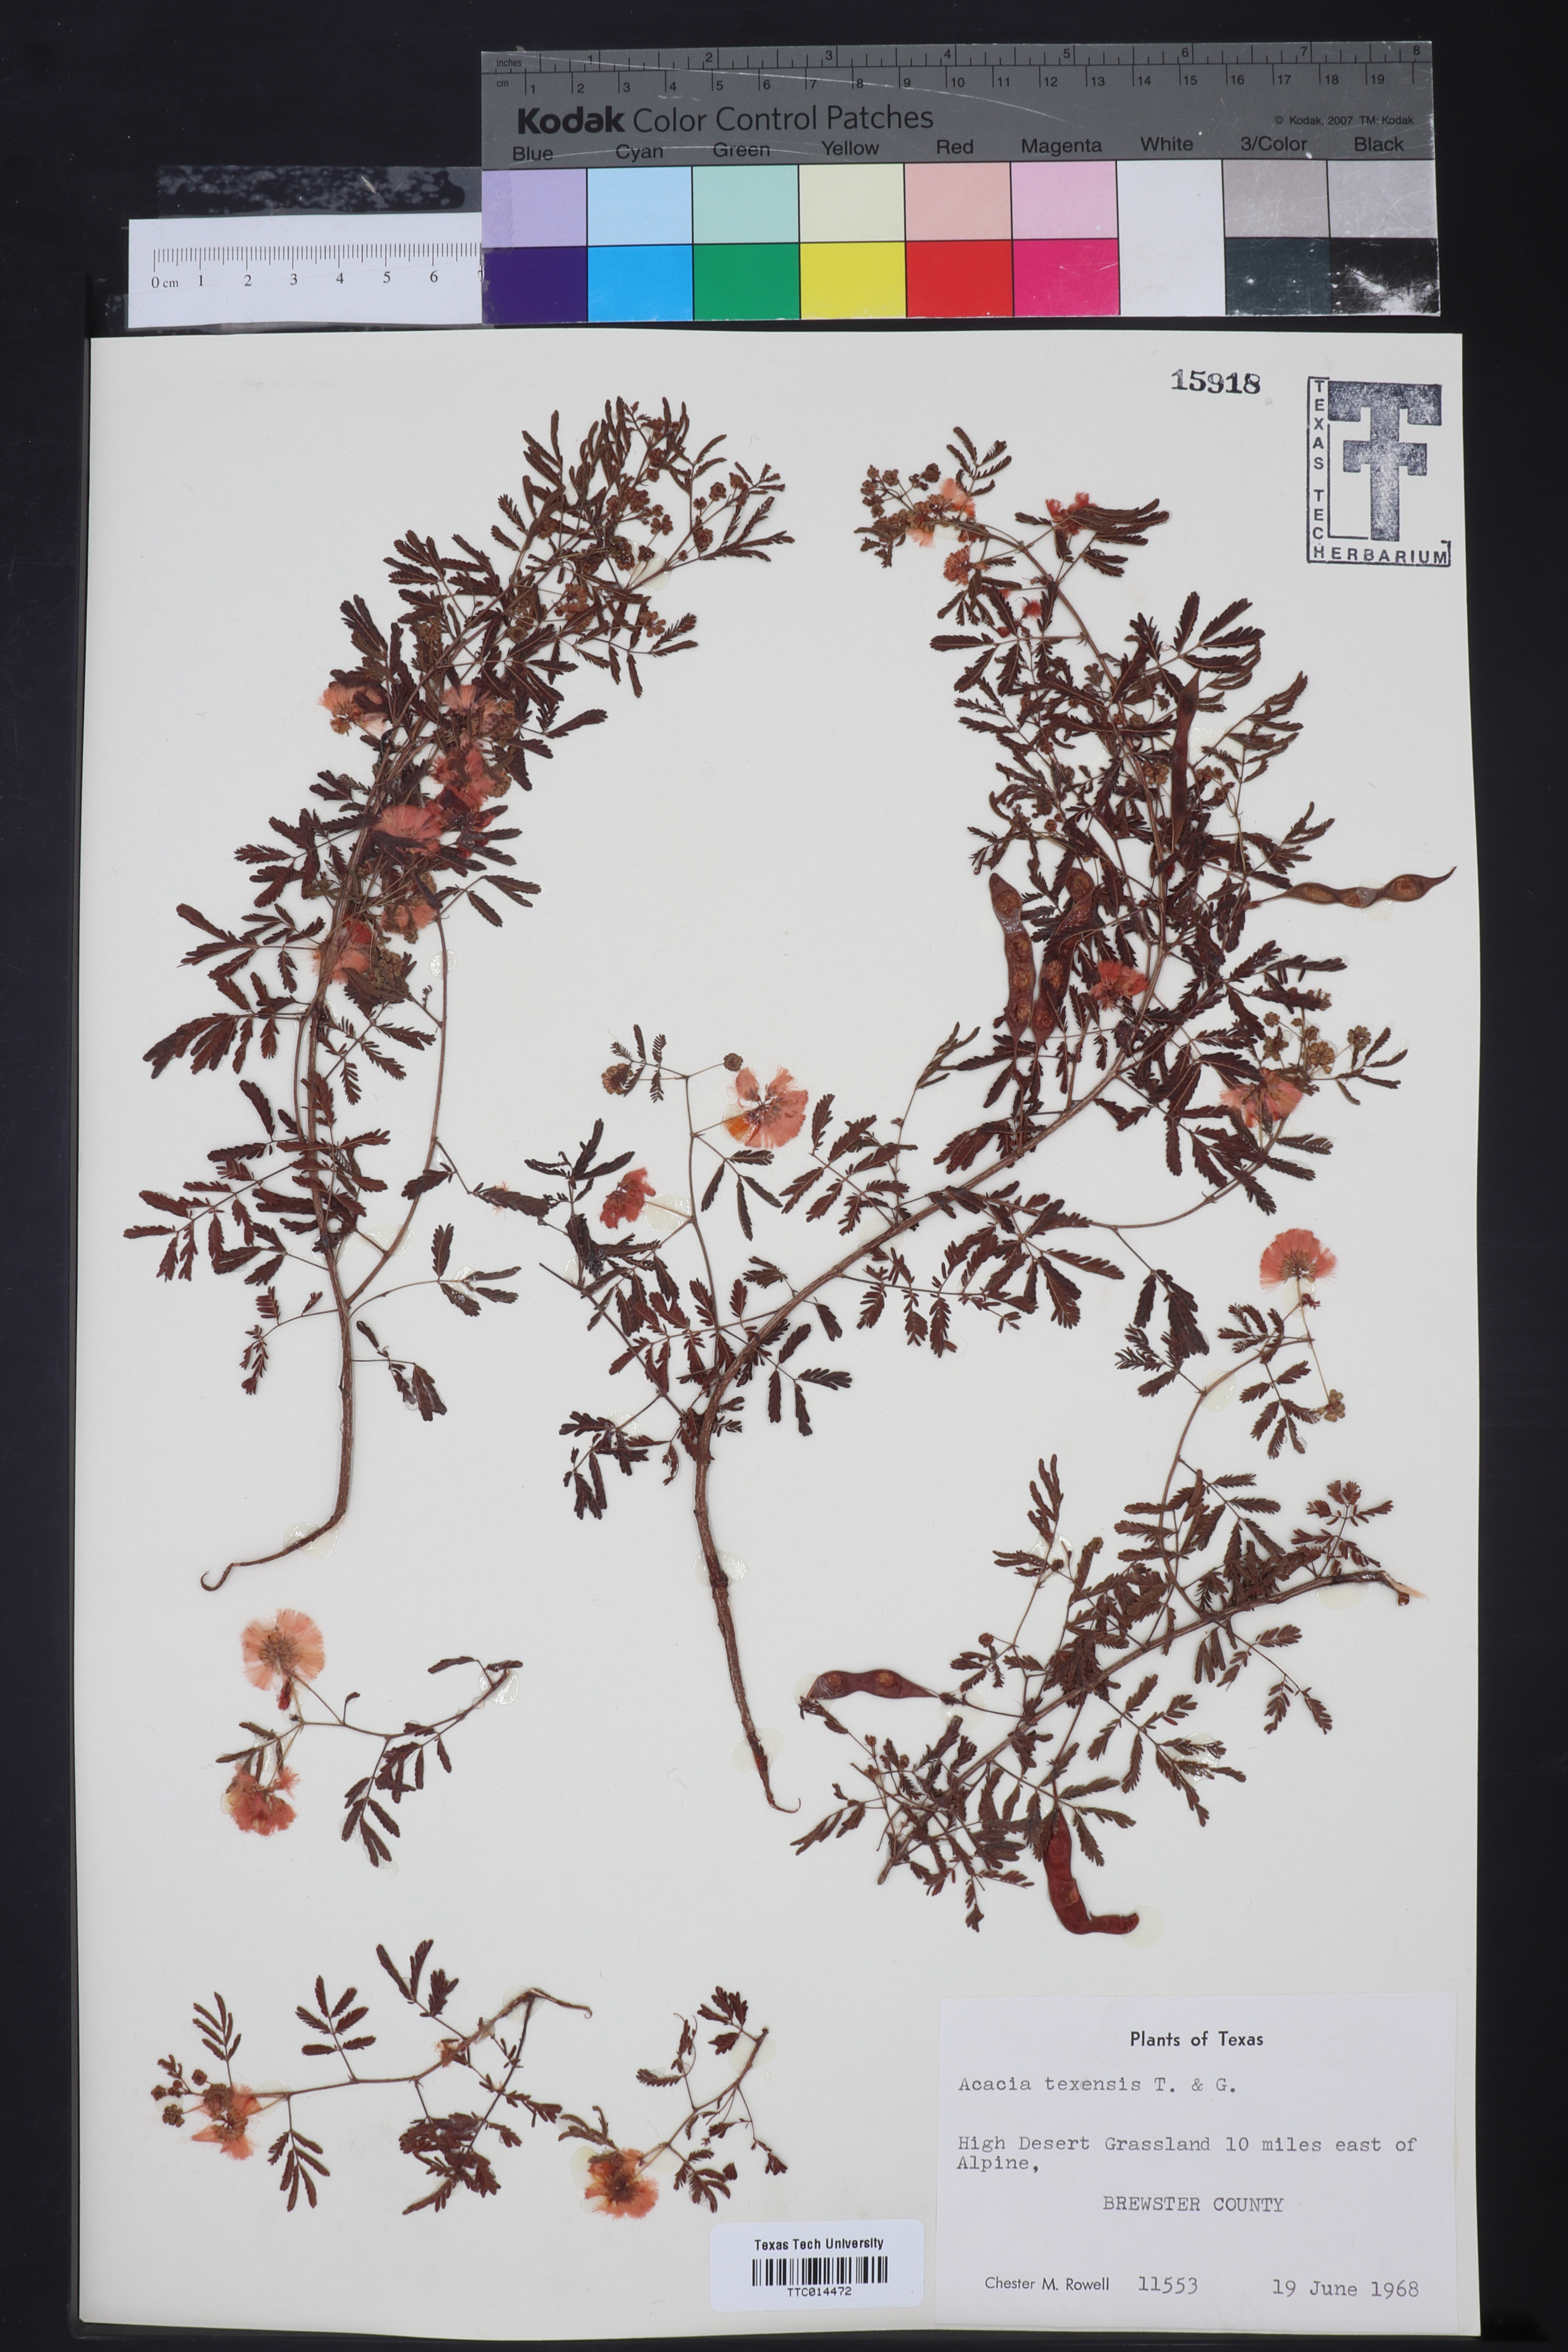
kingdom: Plantae
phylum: Tracheophyta
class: Magnoliopsida
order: Fabales
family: Fabaceae
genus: Acaciella
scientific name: Acaciella angustissima
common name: Prairie acacia
